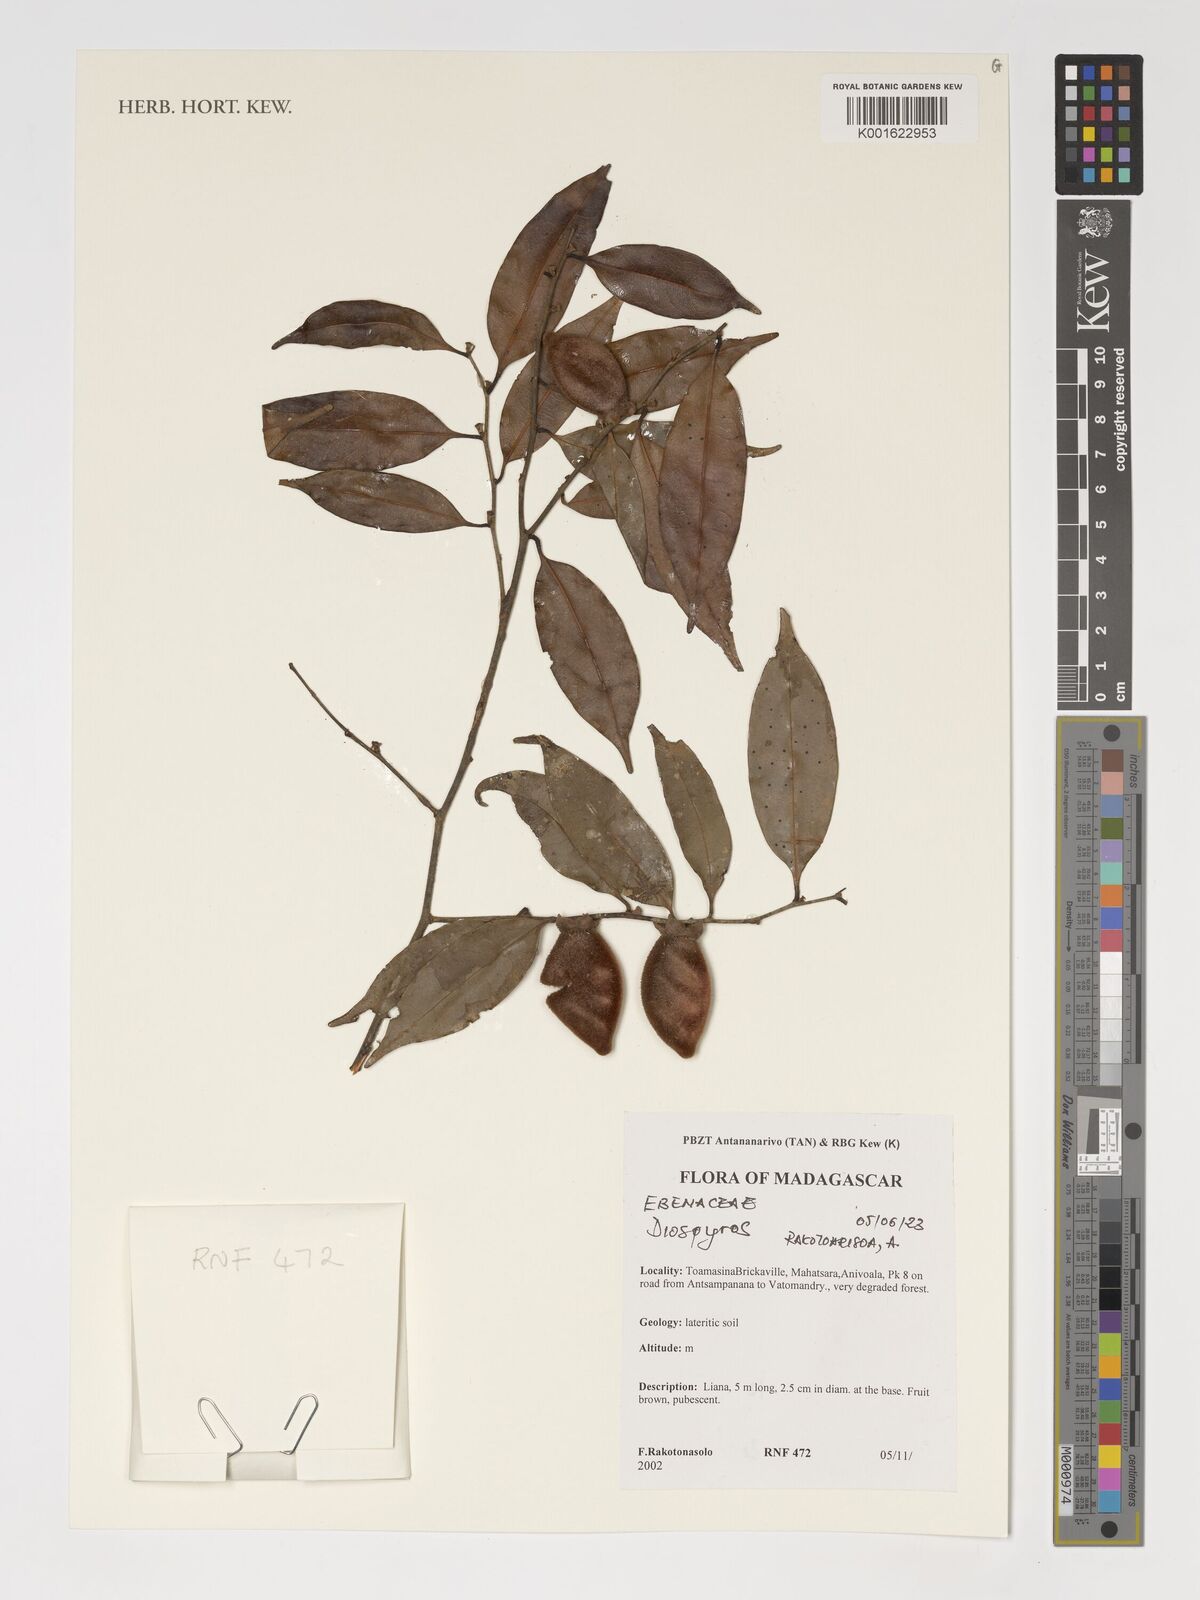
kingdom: Plantae
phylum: Tracheophyta
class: Magnoliopsida
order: Ericales
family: Ebenaceae
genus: Diospyros
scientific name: Diospyros
